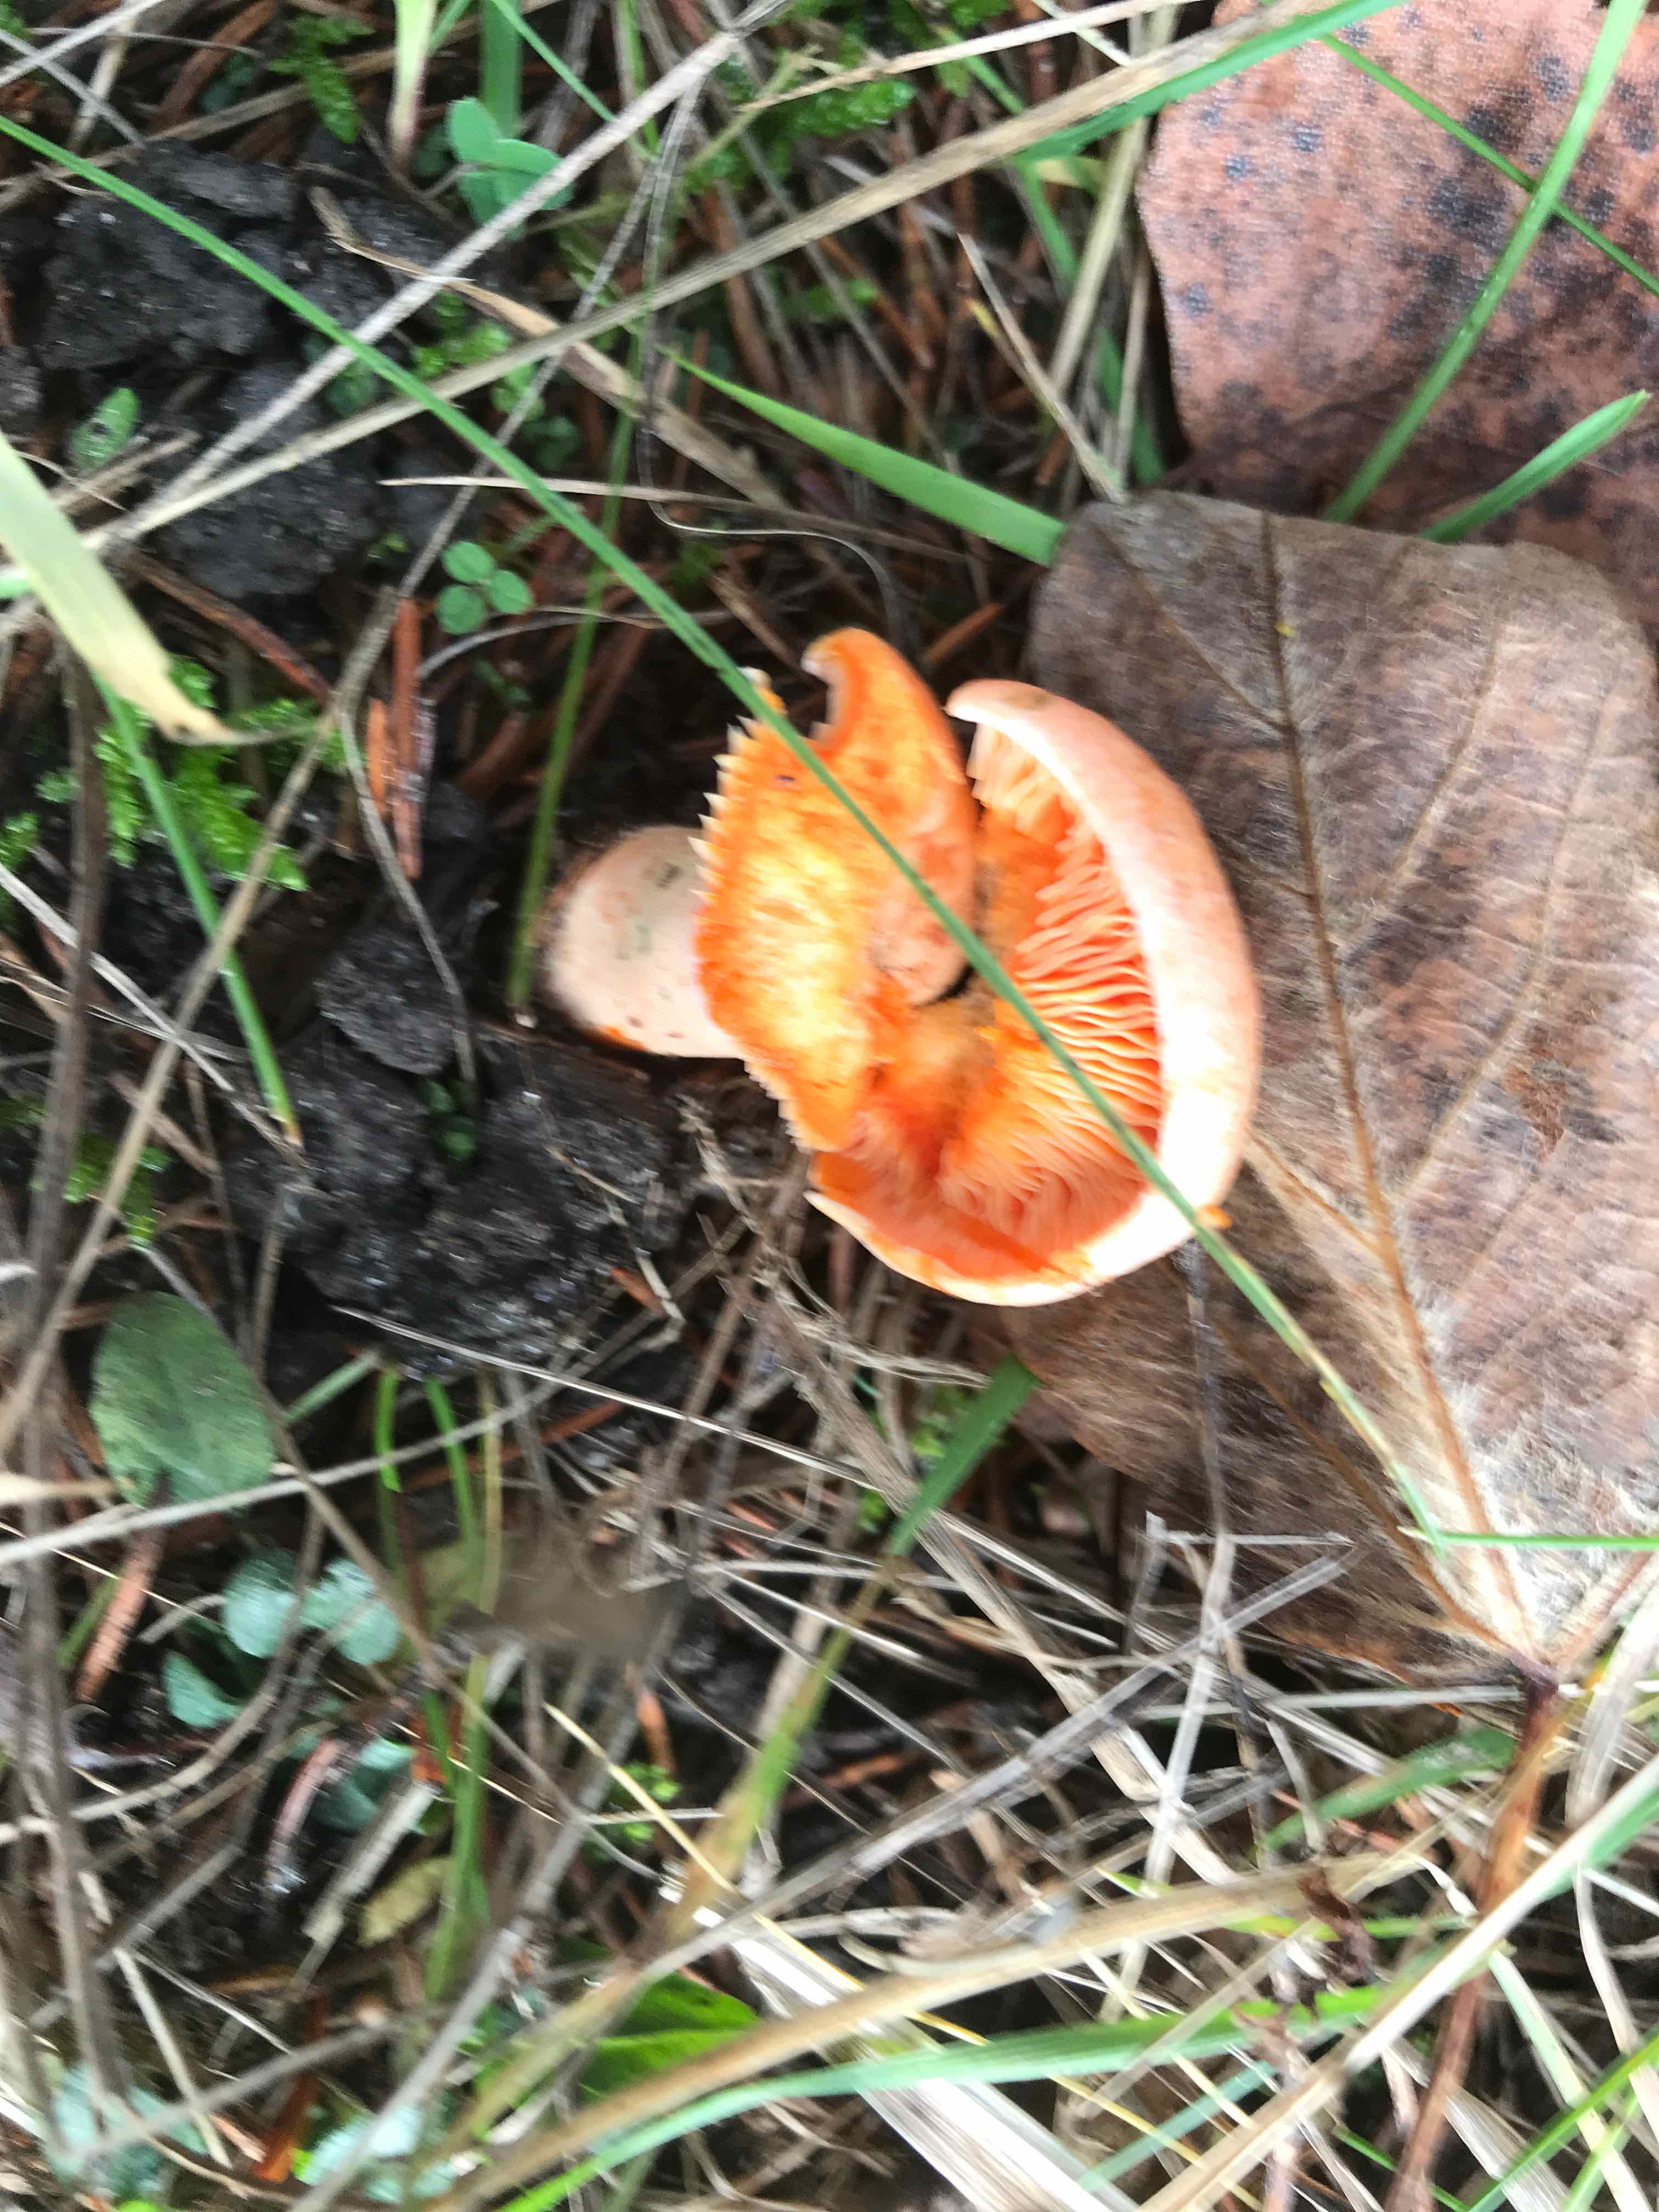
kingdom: Fungi
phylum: Basidiomycota
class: Agaricomycetes
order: Russulales
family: Russulaceae
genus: Lactarius
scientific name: Lactarius deterrimus
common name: gran-mælkehat
